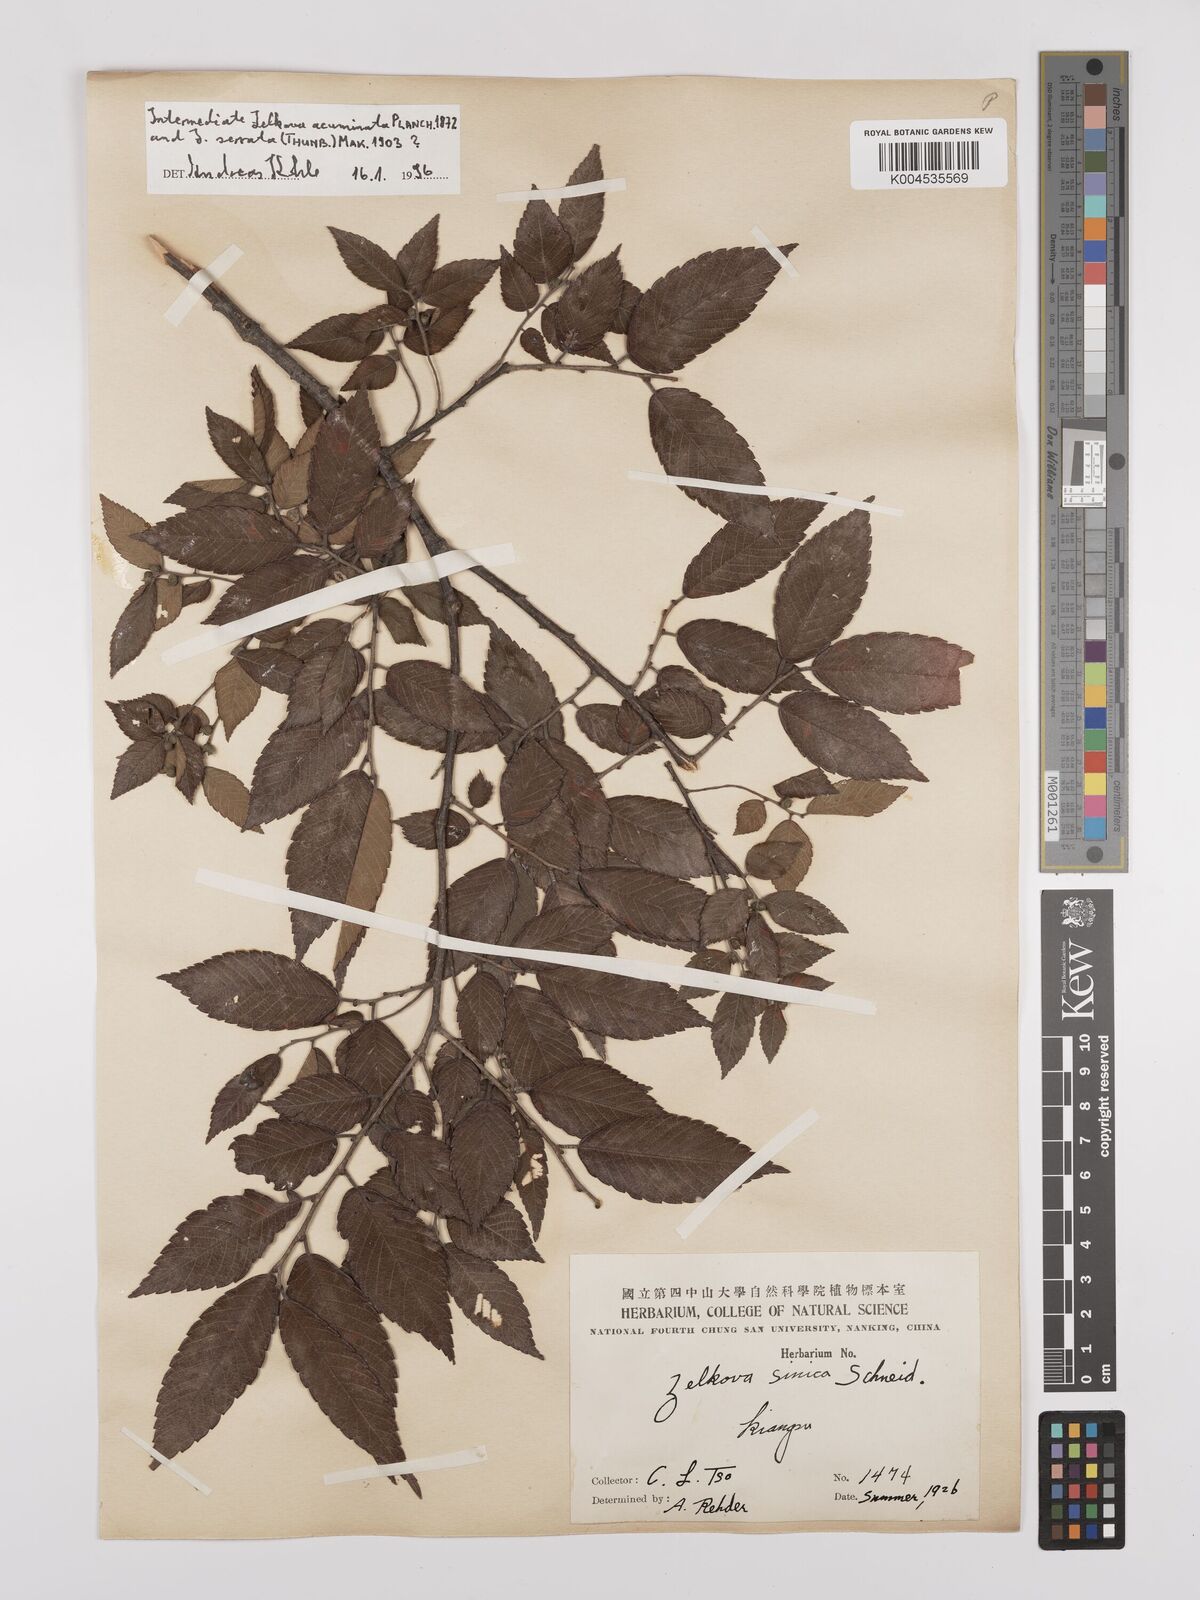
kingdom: Plantae
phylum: Tracheophyta
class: Magnoliopsida
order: Rosales
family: Ulmaceae
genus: Zelkova
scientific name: Zelkova schneideriana
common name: Schneider’s zelkova
